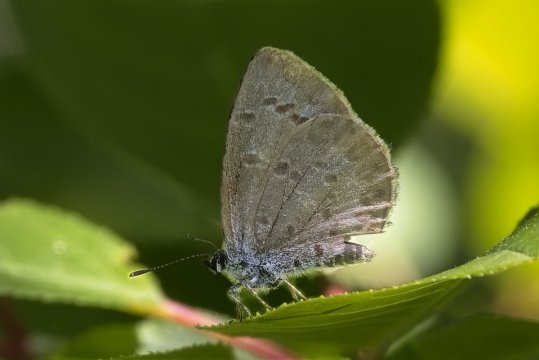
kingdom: Animalia
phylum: Arthropoda
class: Insecta
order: Lepidoptera
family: Lycaenidae
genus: Celastrina
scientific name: Celastrina lucia
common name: Northern Spring Azure
